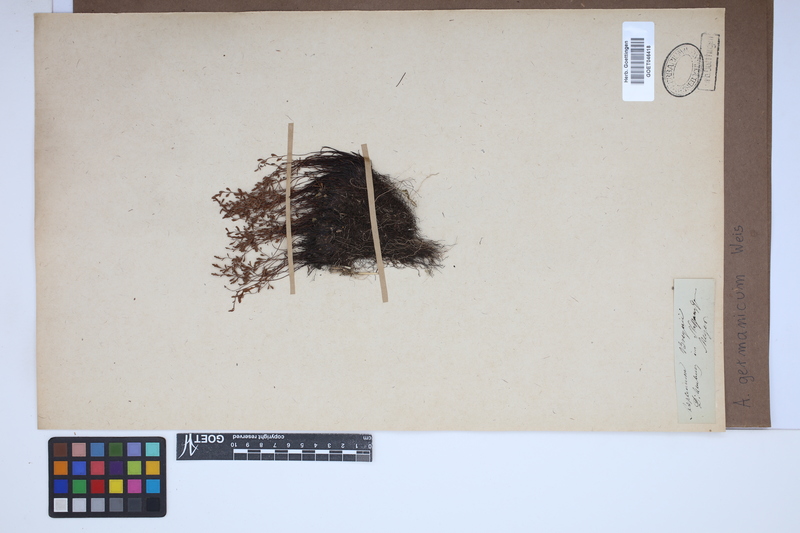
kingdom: Plantae
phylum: Tracheophyta
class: Polypodiopsida
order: Polypodiales
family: Aspleniaceae
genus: Asplenium
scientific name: Asplenium
